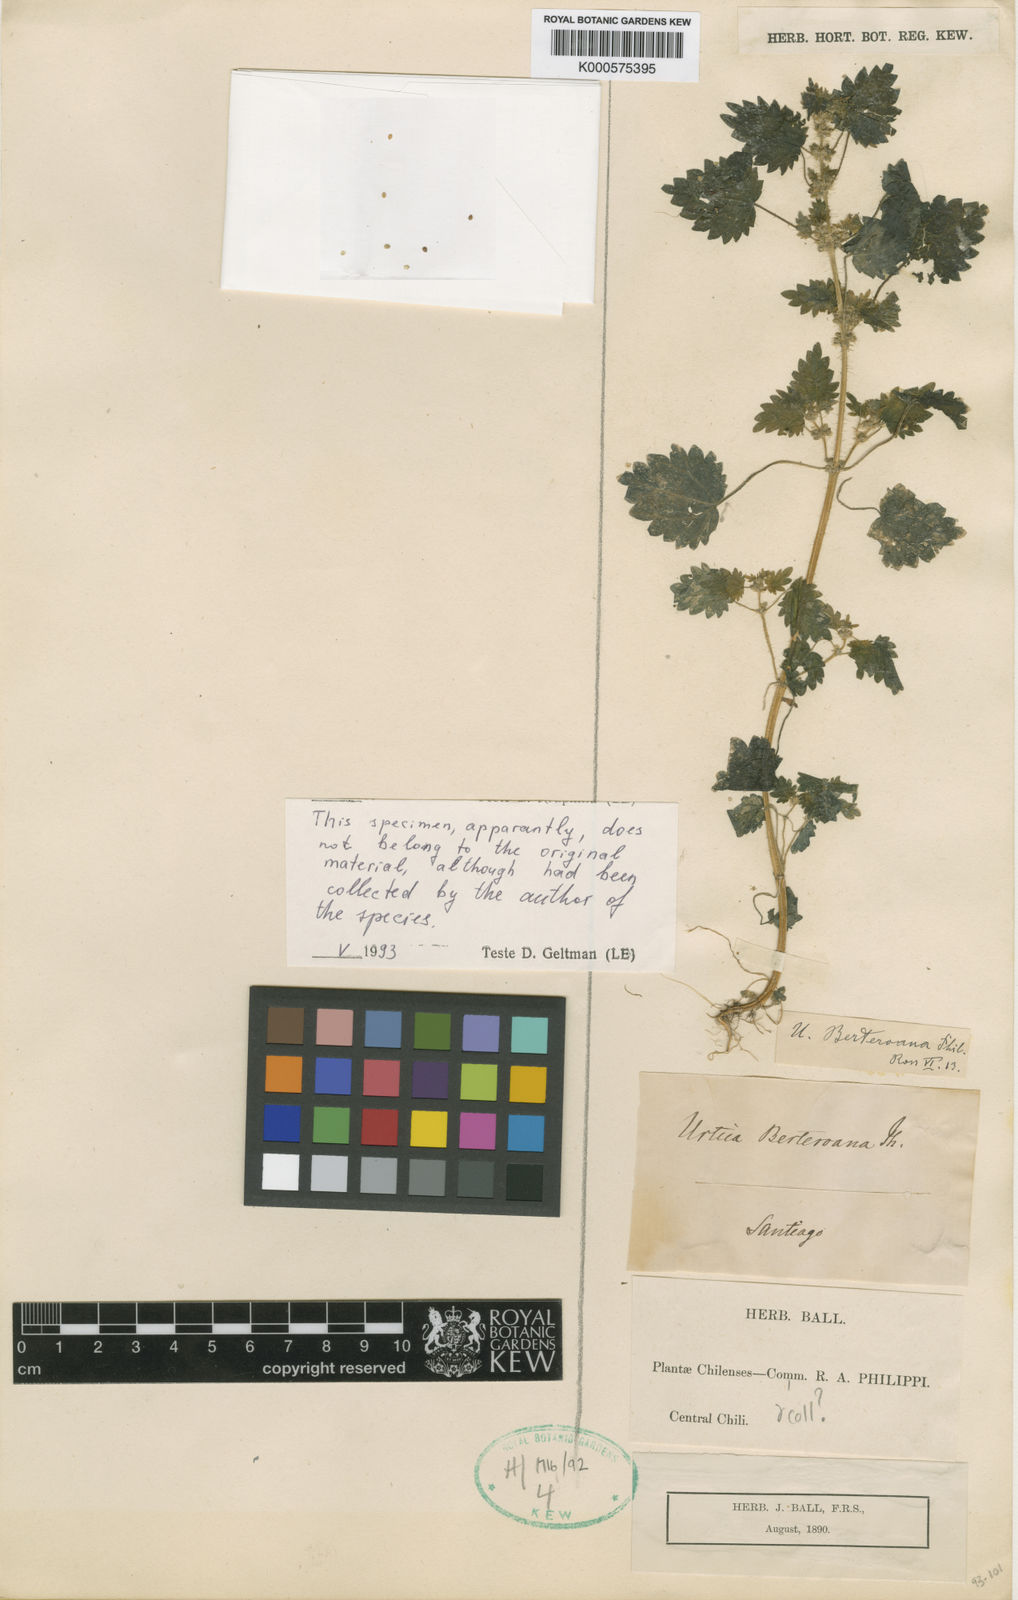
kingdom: Plantae
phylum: Tracheophyta
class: Magnoliopsida
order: Rosales
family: Urticaceae
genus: Urtica
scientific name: Urtica berteroana
